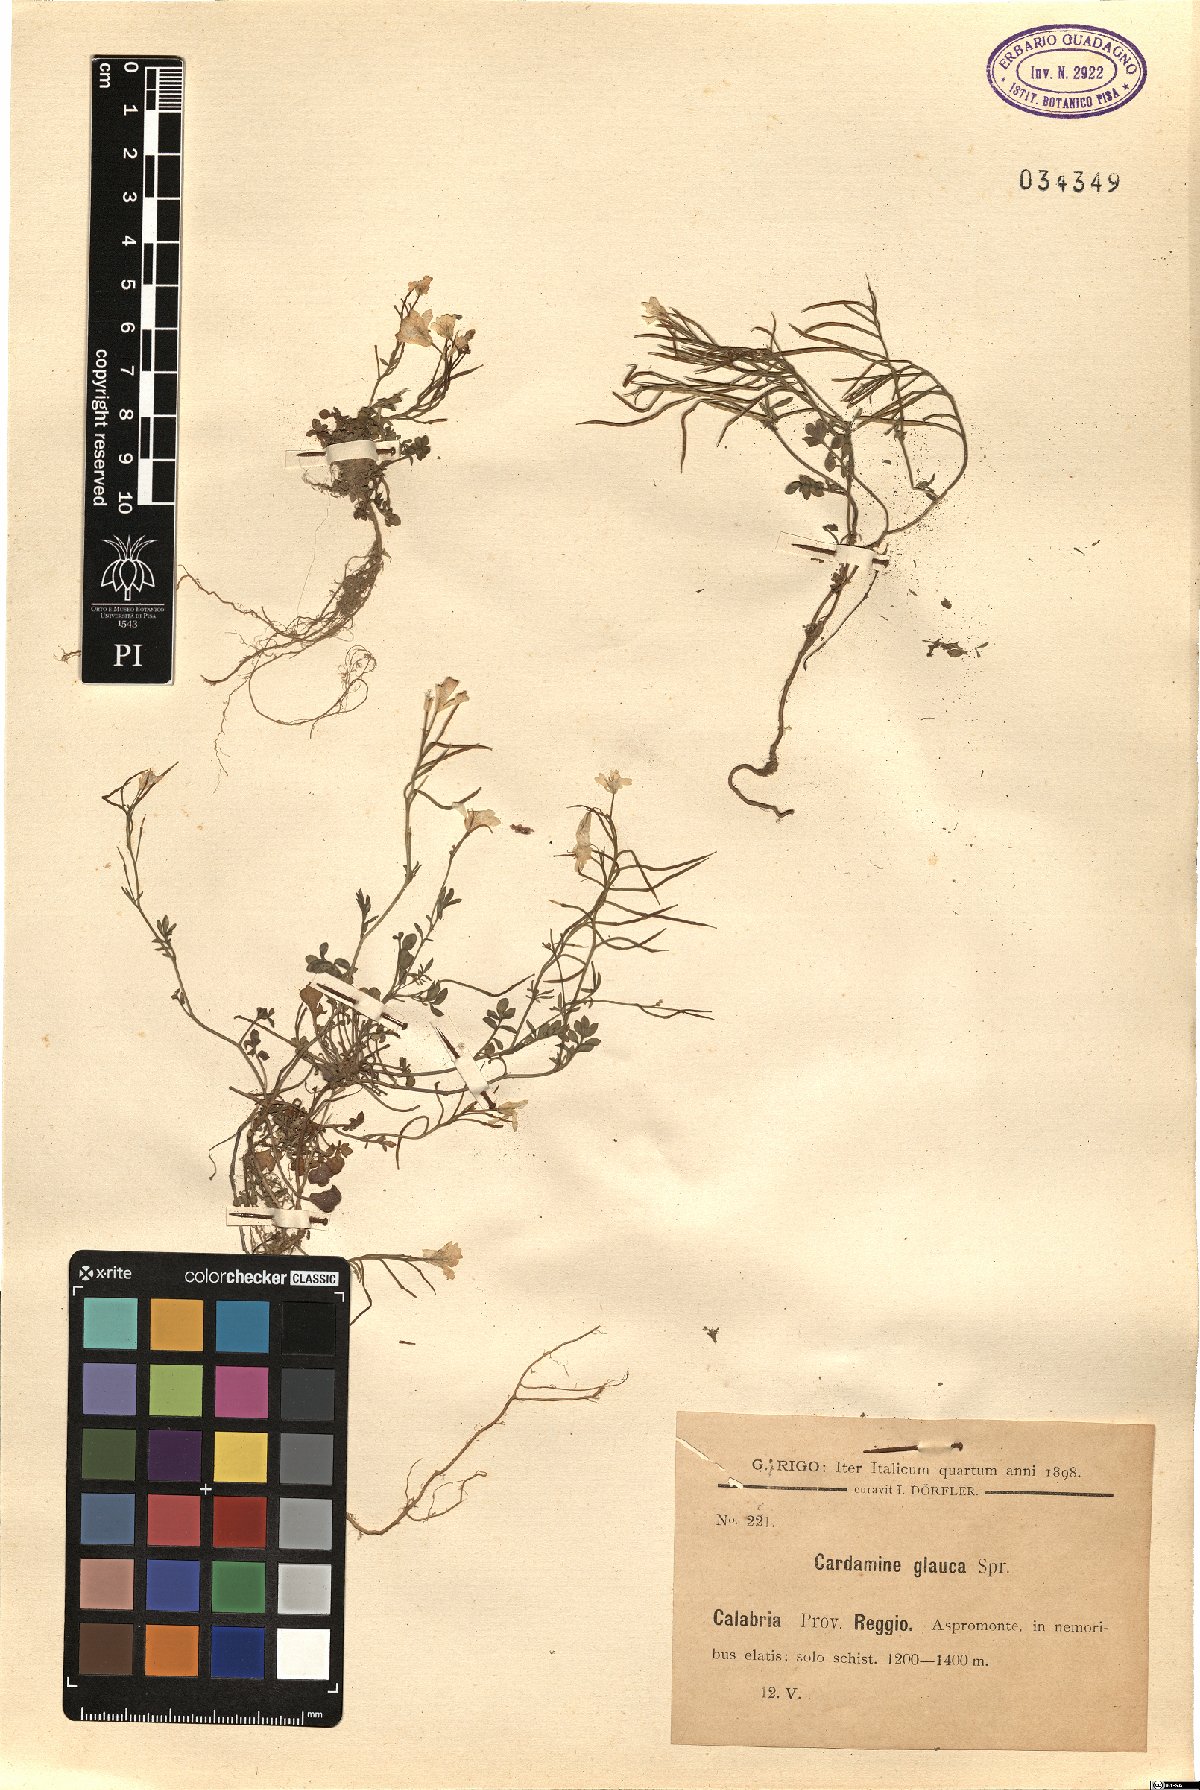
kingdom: Plantae
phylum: Tracheophyta
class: Magnoliopsida
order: Brassicales
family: Brassicaceae
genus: Cardamine
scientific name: Cardamine glauca
